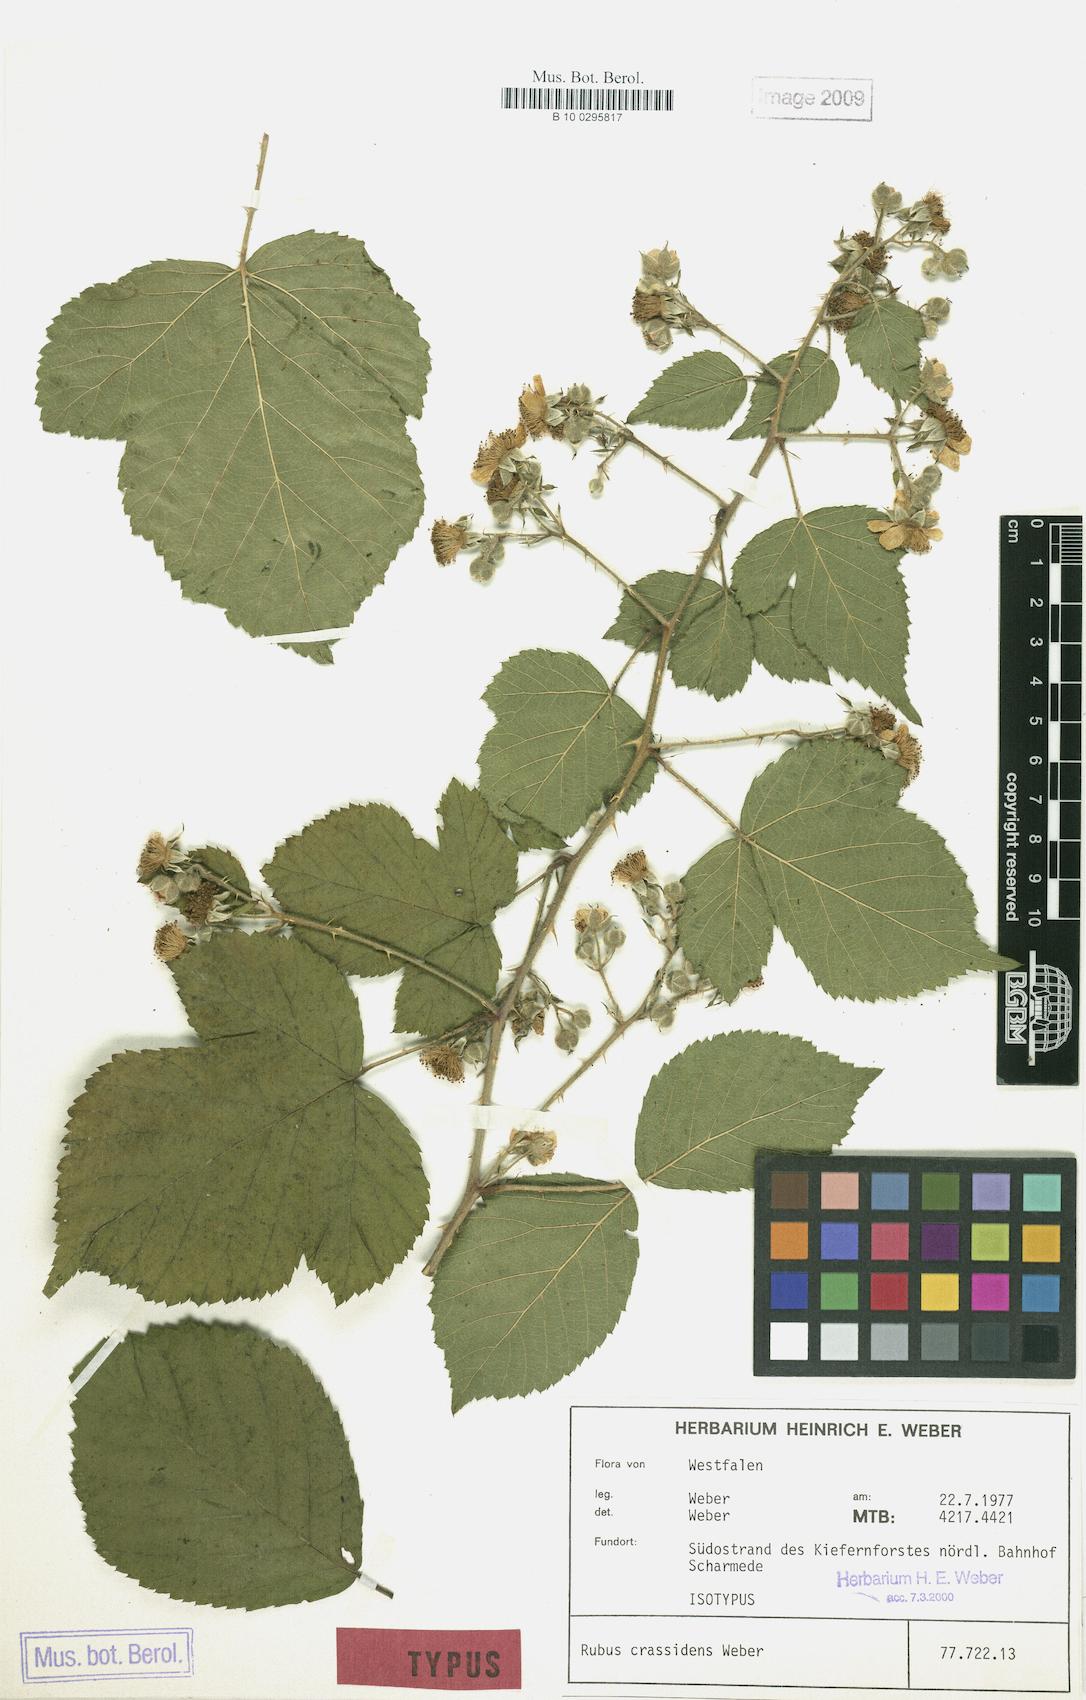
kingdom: Plantae
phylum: Tracheophyta
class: Magnoliopsida
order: Rosales
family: Rosaceae
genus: Rubus
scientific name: Rubus crassidens
